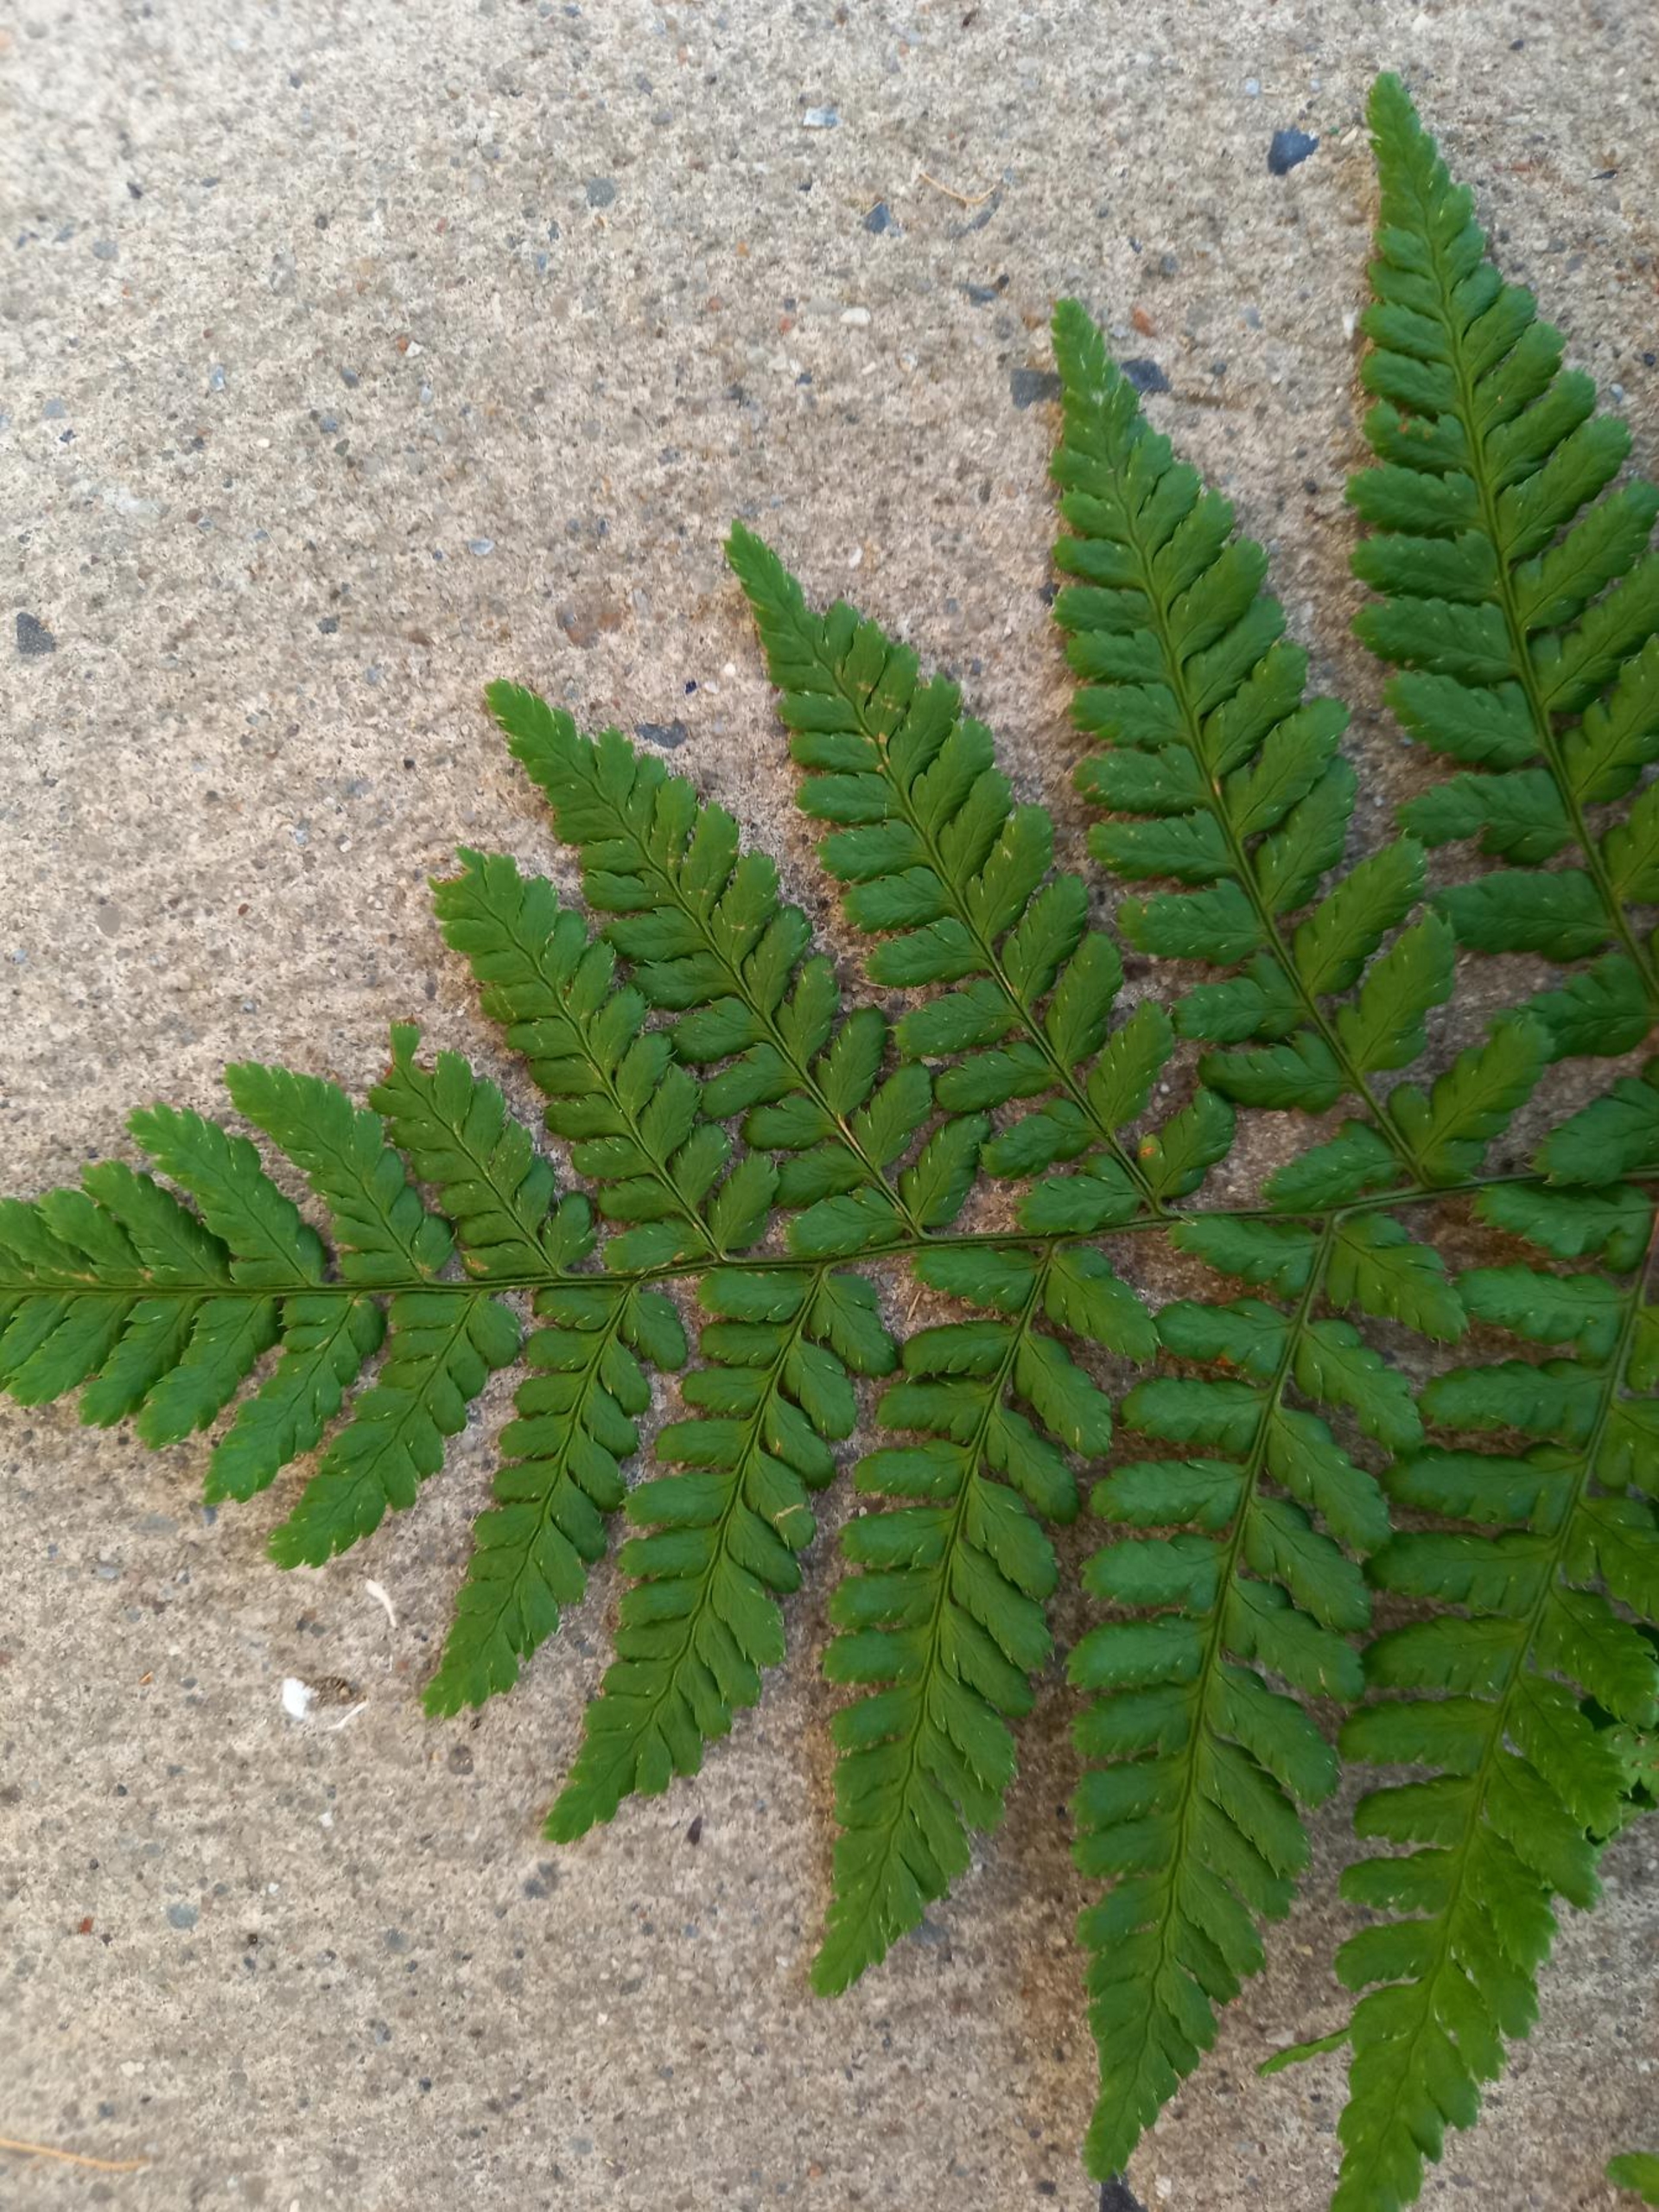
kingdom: Plantae
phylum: Tracheophyta
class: Polypodiopsida
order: Polypodiales
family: Dryopteridaceae
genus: Dryopteris
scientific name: Dryopteris dilatata
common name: Bredbladet mangeløv
